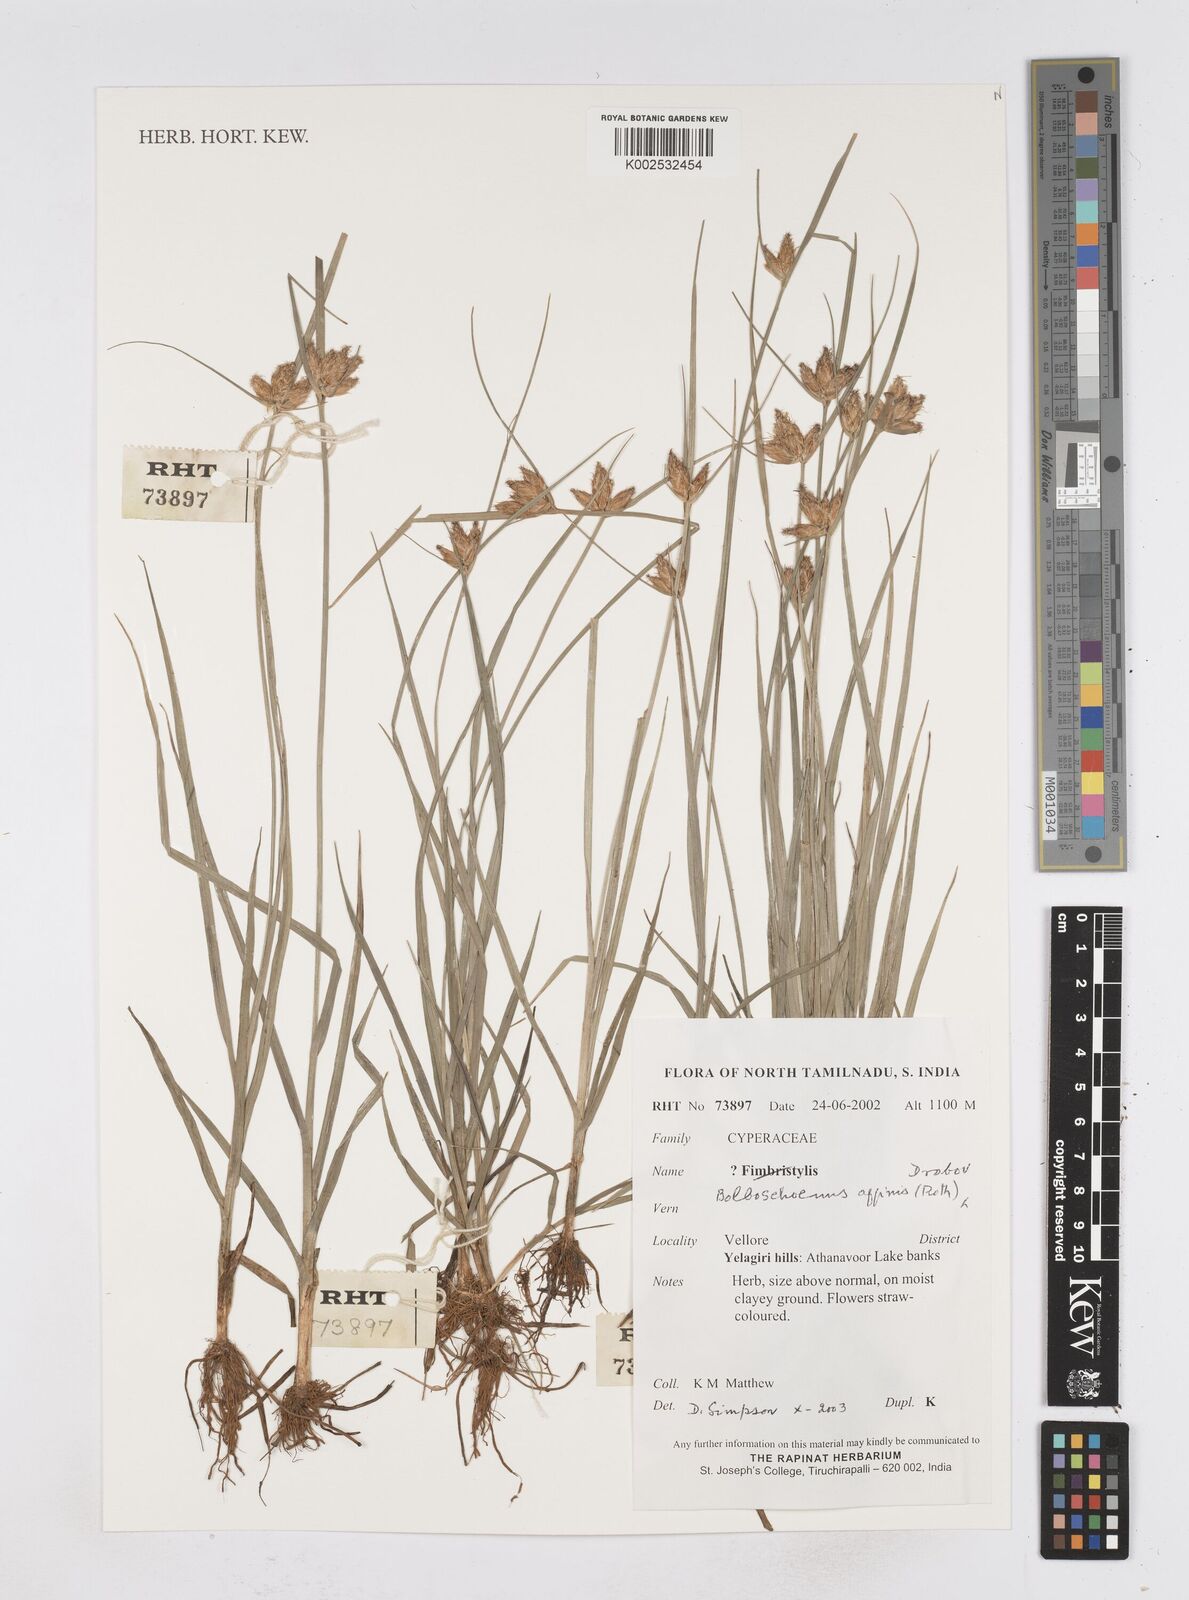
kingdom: Plantae
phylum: Tracheophyta
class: Liliopsida
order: Poales
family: Cyperaceae
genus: Bolboschoenus
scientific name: Bolboschoenus maritimus
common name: Sea club-rush
